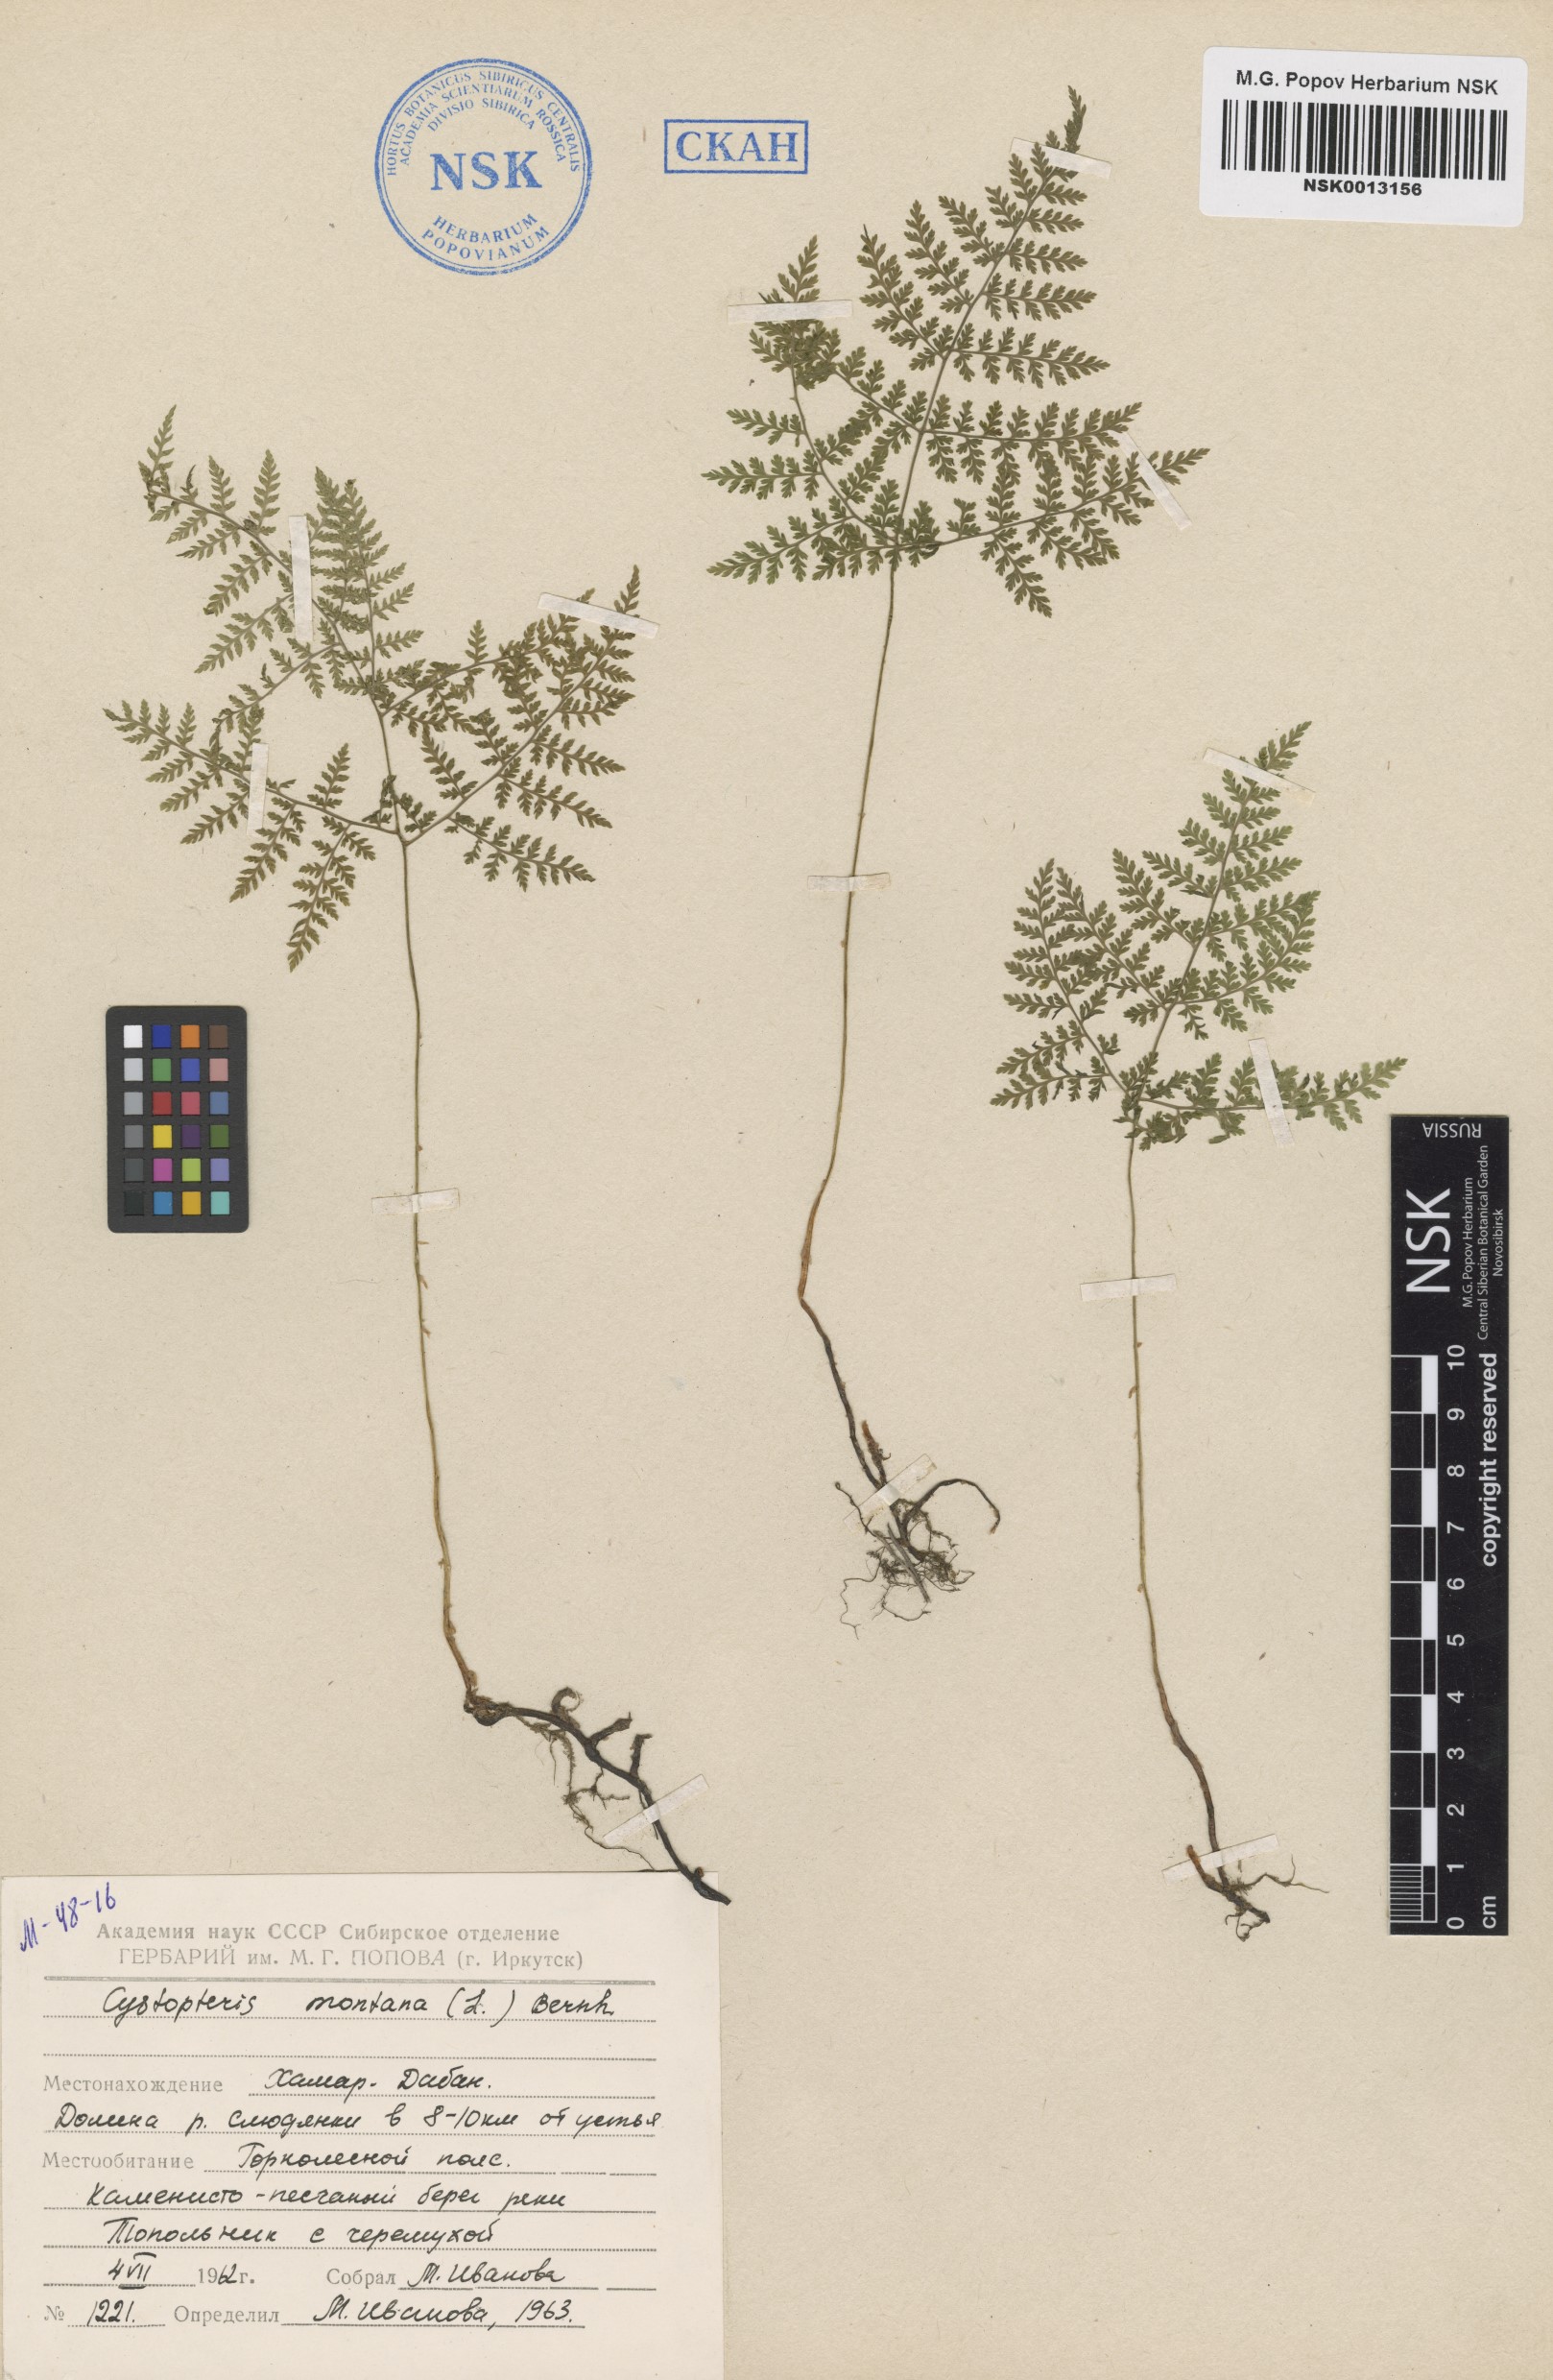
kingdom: Plantae
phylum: Tracheophyta
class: Polypodiopsida
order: Polypodiales
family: Cystopteridaceae
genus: Cystopteris
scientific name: Cystopteris montana
